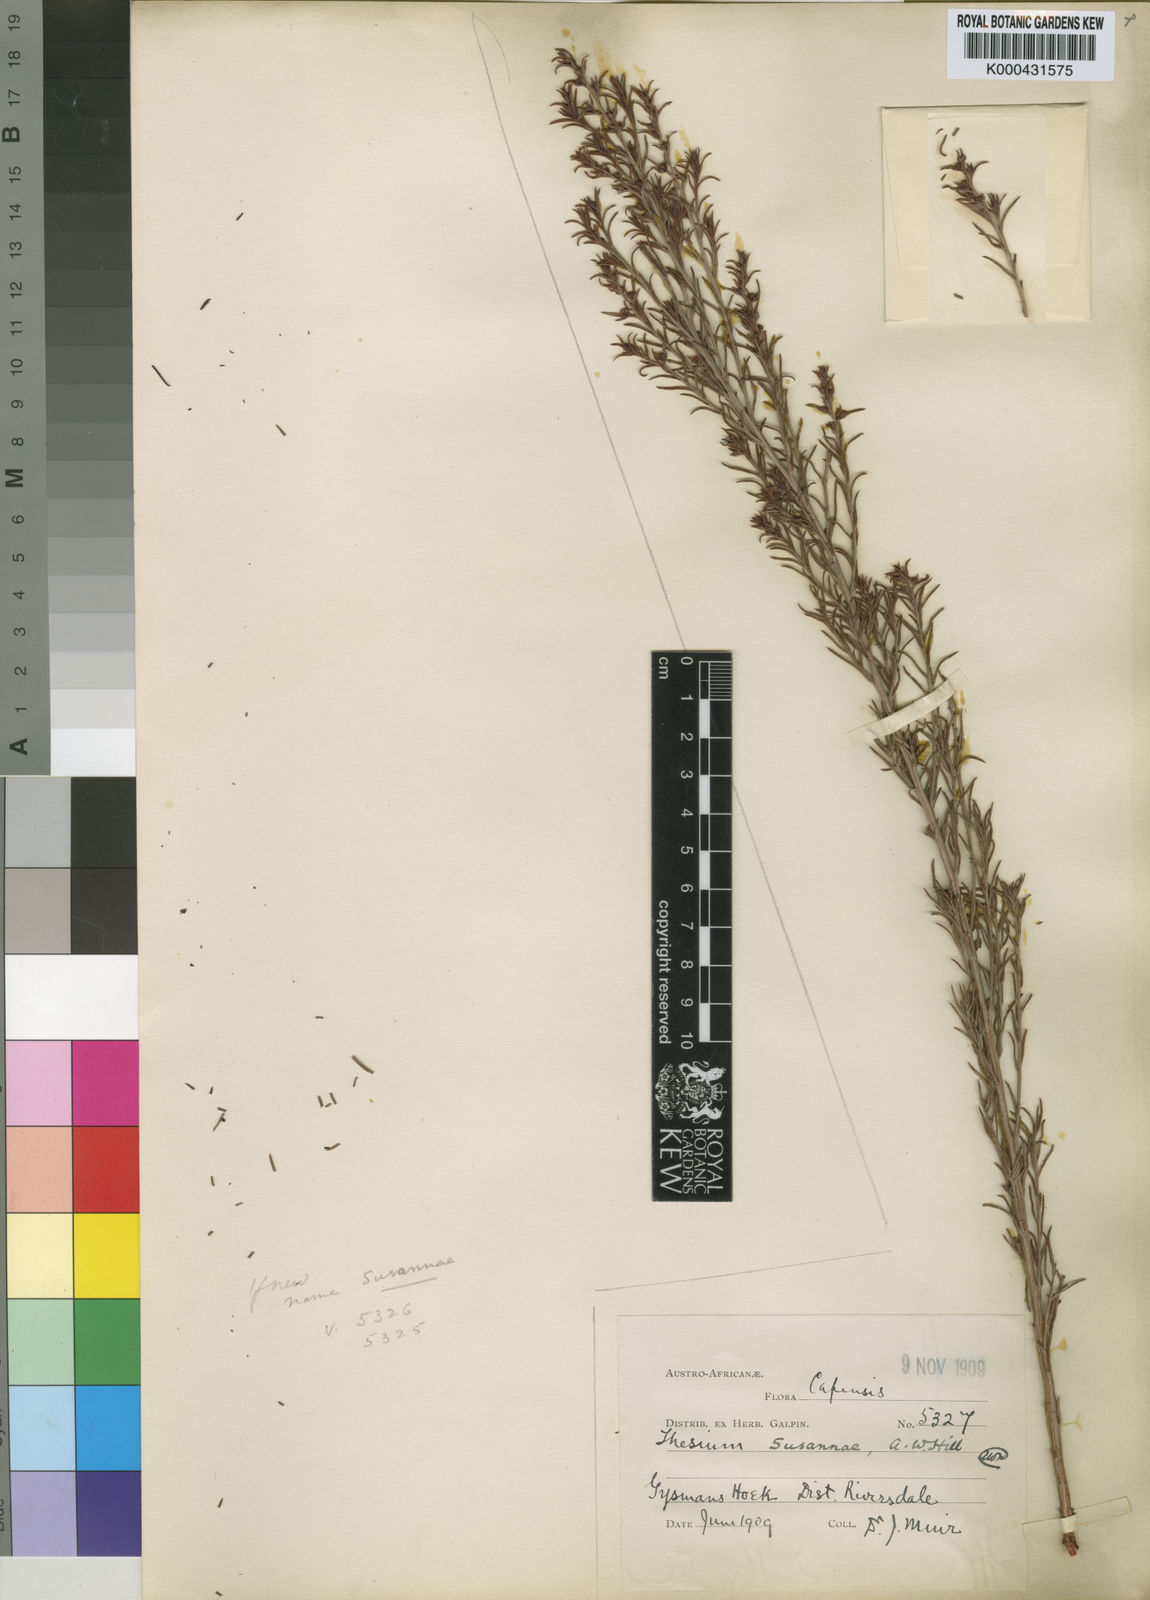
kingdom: Plantae
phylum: Tracheophyta
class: Magnoliopsida
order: Santalales
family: Thesiaceae
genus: Thesium
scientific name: Thesium susannae
